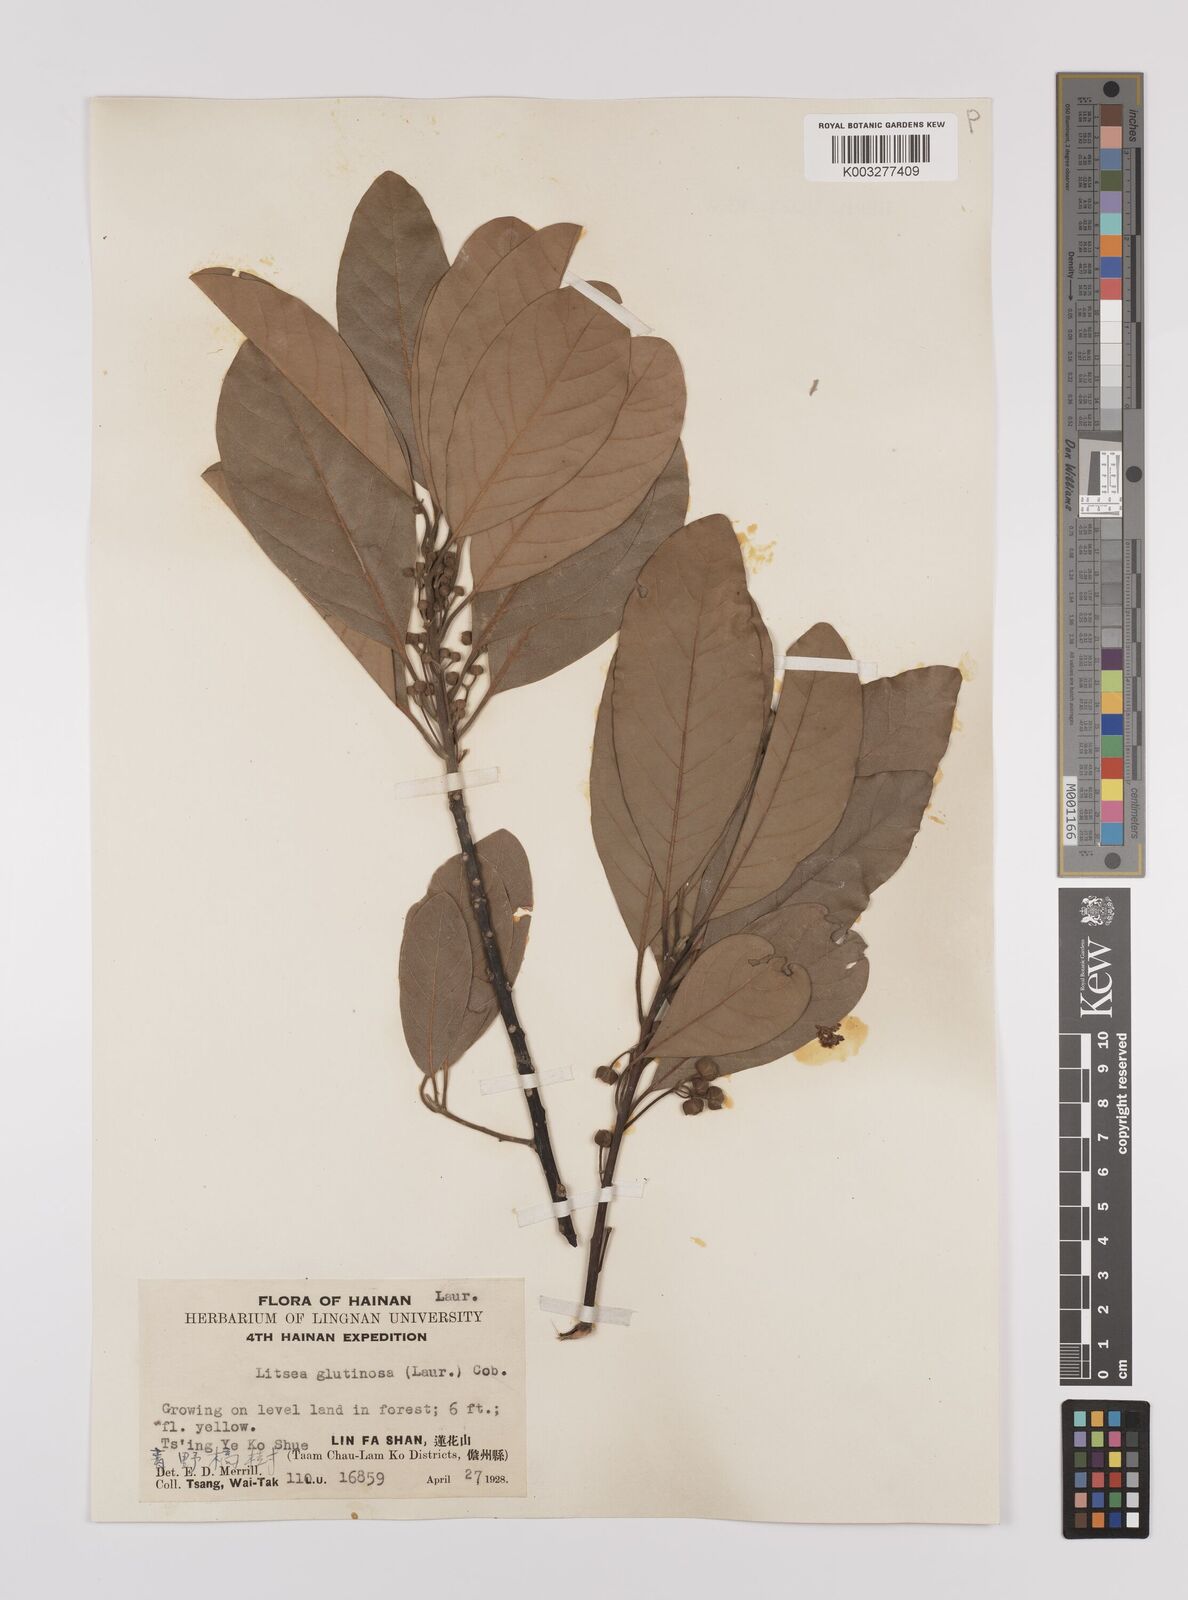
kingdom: Plantae
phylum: Tracheophyta
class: Magnoliopsida
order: Laurales
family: Lauraceae
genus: Litsea
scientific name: Litsea glutinosa
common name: Indian-laurel
